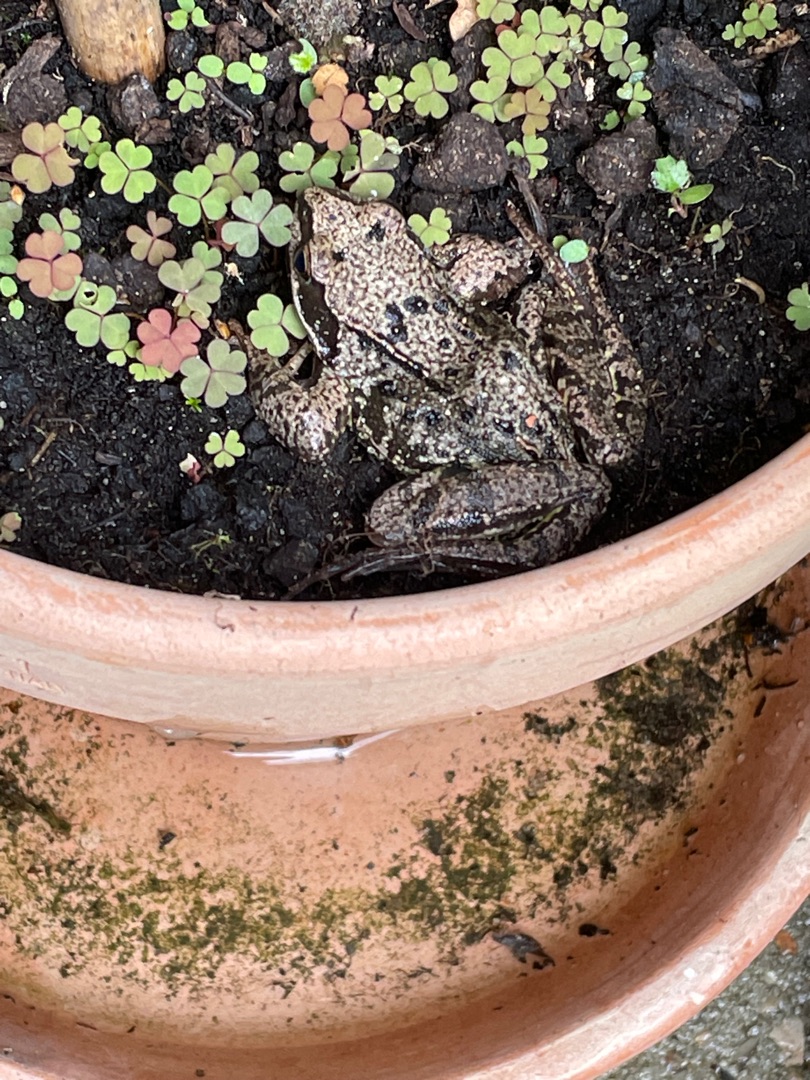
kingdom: Animalia
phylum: Chordata
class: Amphibia
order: Anura
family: Ranidae
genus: Rana
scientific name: Rana temporaria
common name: Butsnudet frø
